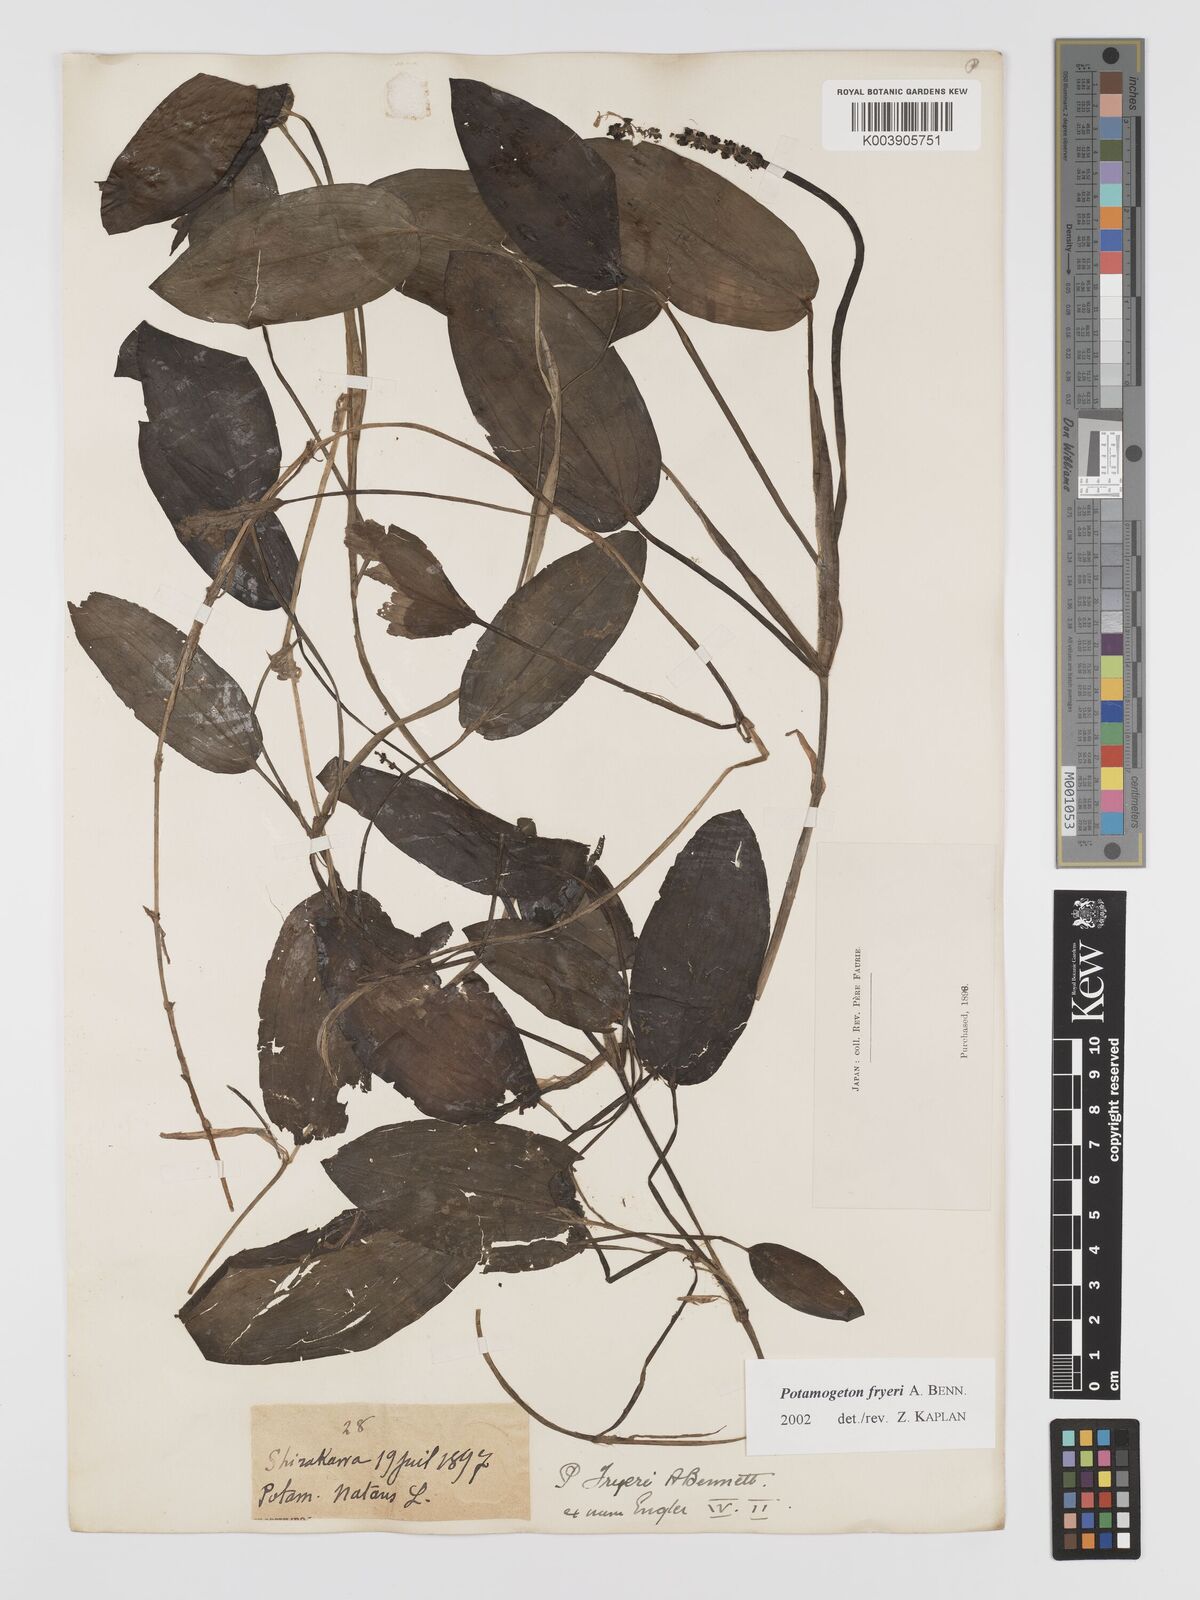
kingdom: Plantae
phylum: Tracheophyta
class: Liliopsida
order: Alismatales
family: Potamogetonaceae
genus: Potamogeton
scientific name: Potamogeton fryeri
